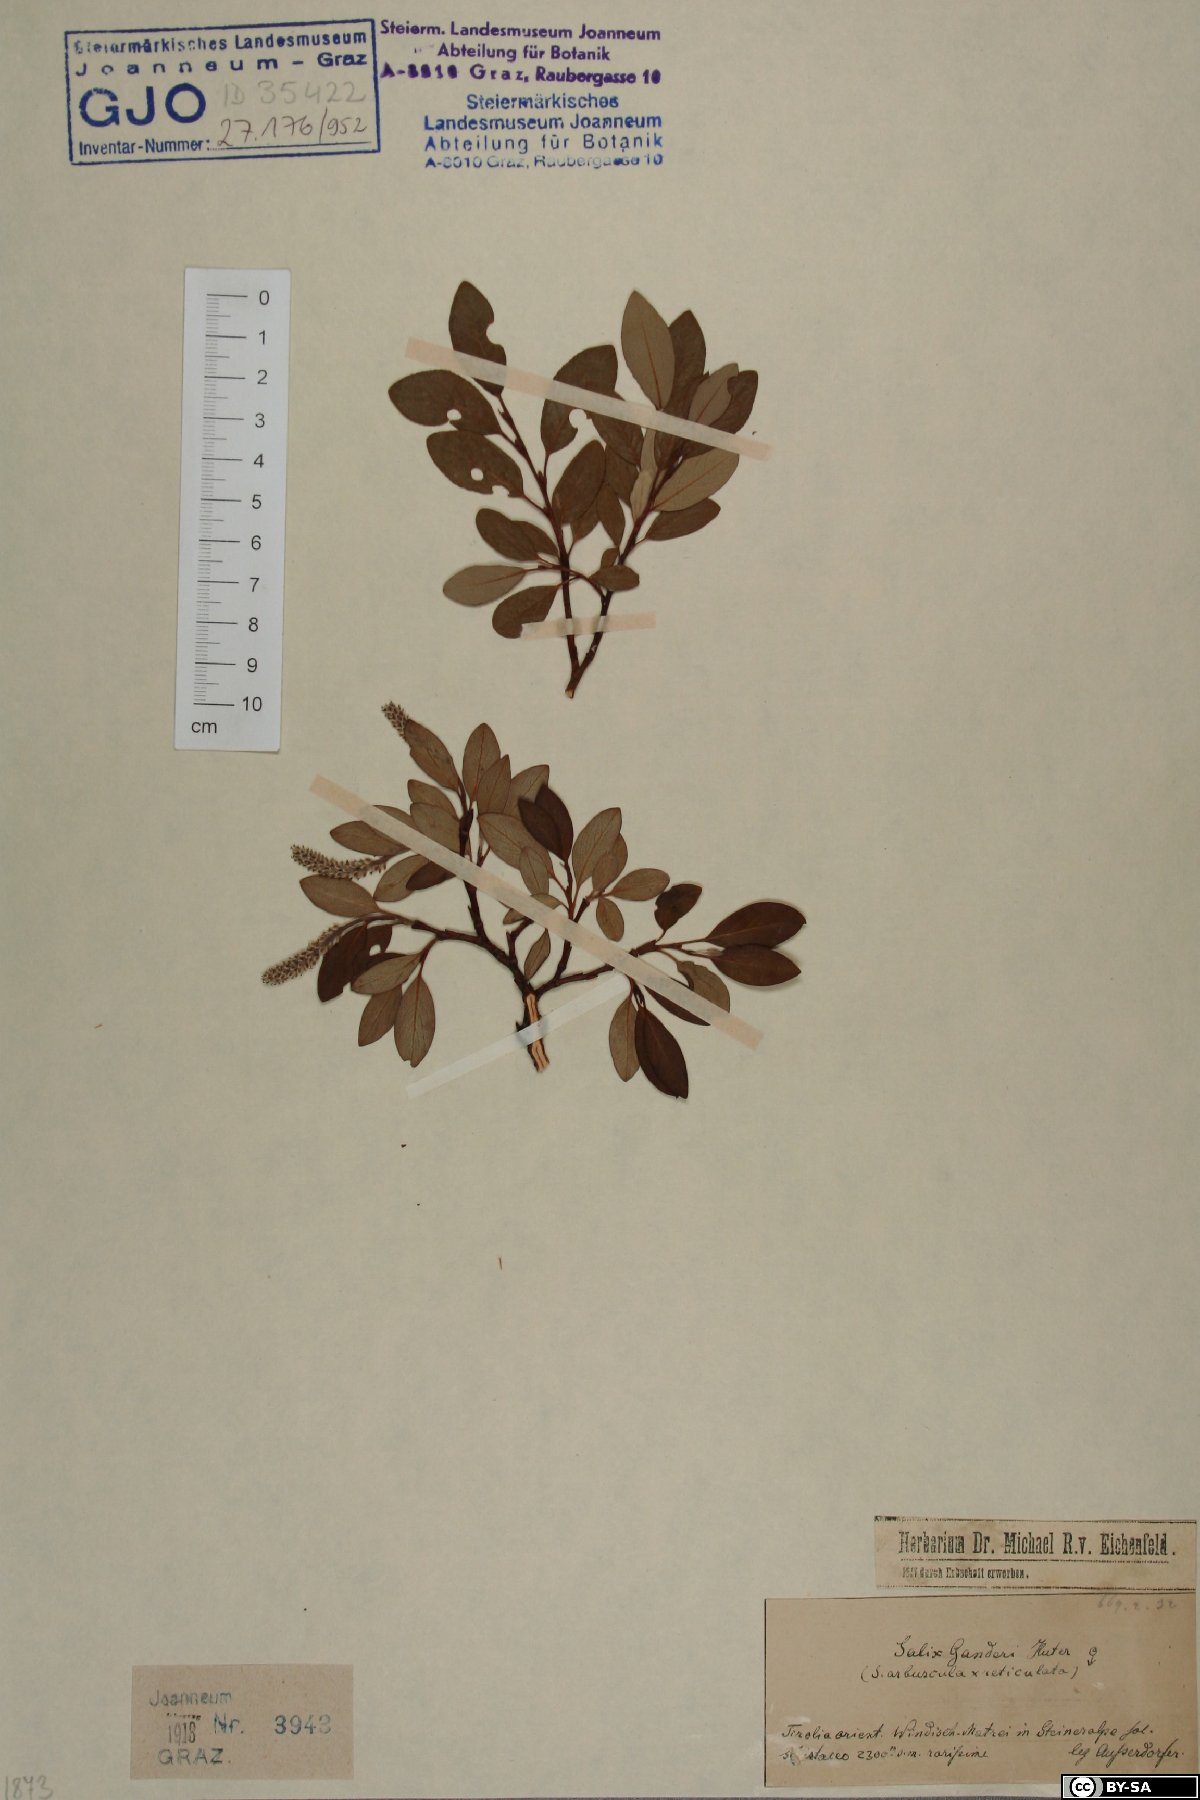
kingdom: Plantae
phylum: Tracheophyta
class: Magnoliopsida
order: Malpighiales
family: Salicaceae
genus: Salix
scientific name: Salix ganderi
